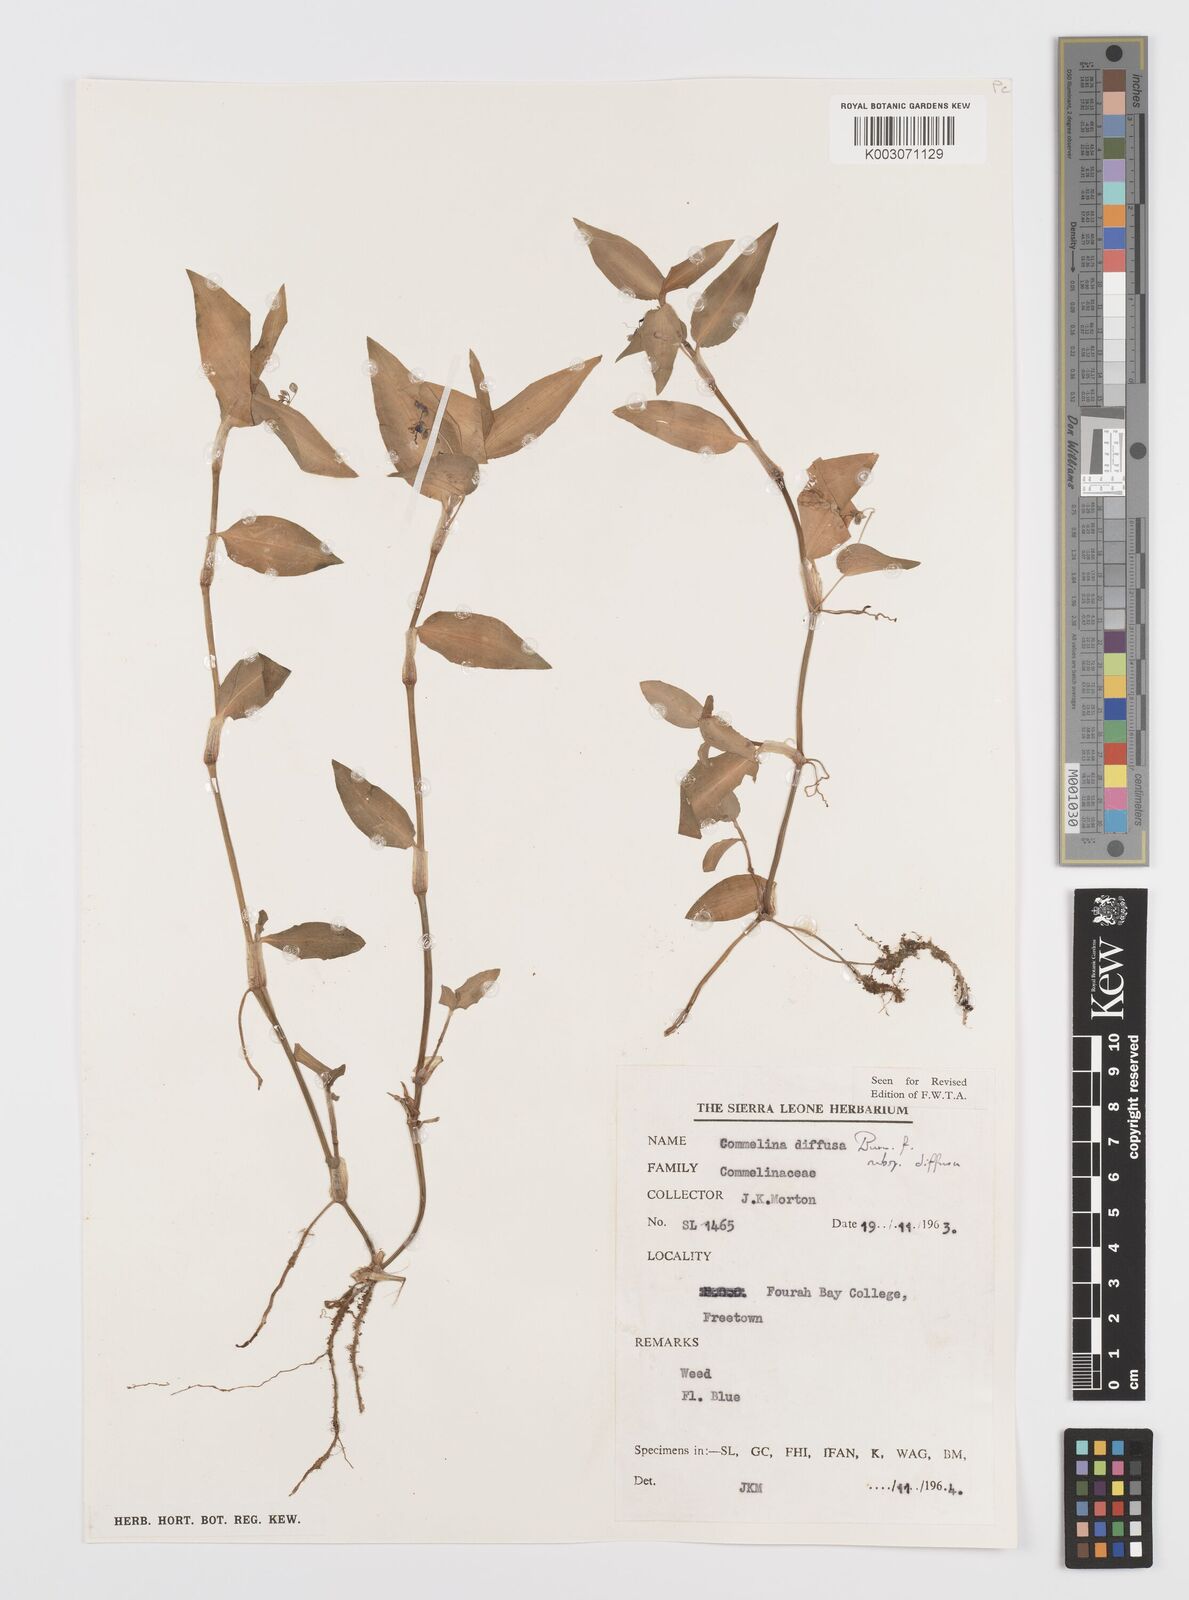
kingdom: Plantae
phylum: Tracheophyta
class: Liliopsida
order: Commelinales
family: Commelinaceae
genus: Commelina
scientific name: Commelina diffusa
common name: Climbing dayflower
